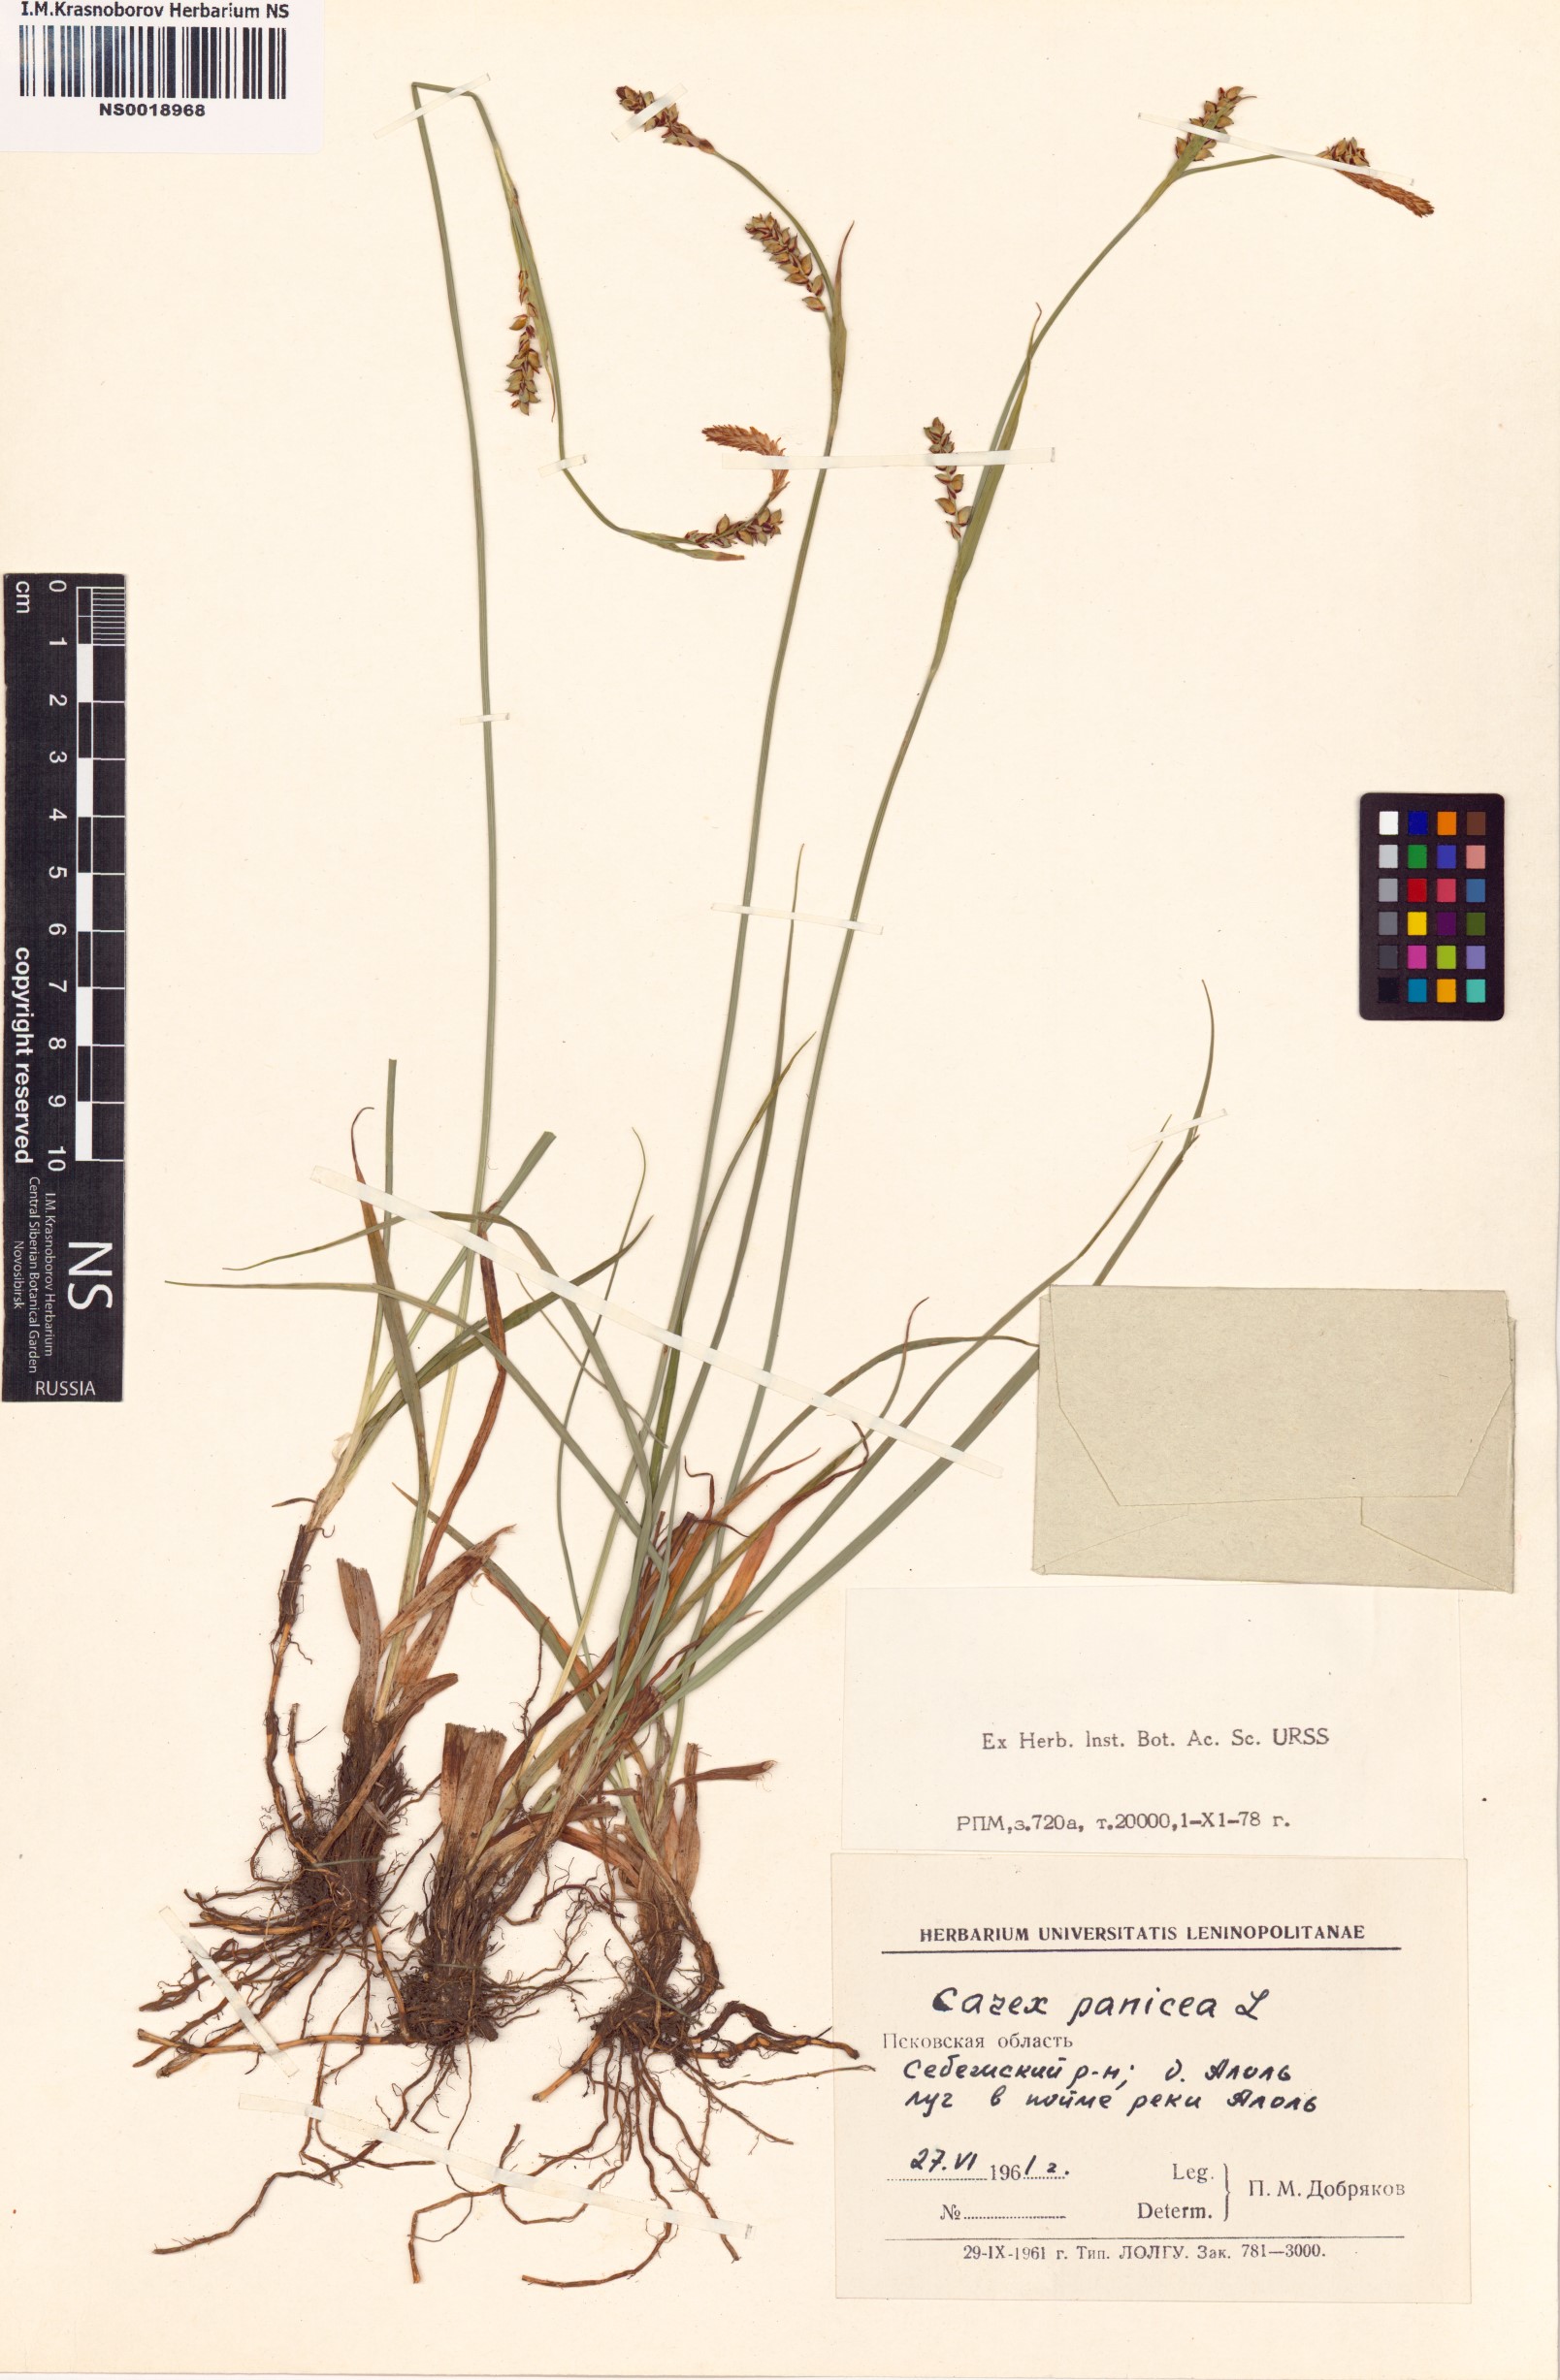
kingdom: Plantae
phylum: Tracheophyta
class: Liliopsida
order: Poales
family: Cyperaceae
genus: Carex
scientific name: Carex panicea
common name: Carnation sedge
